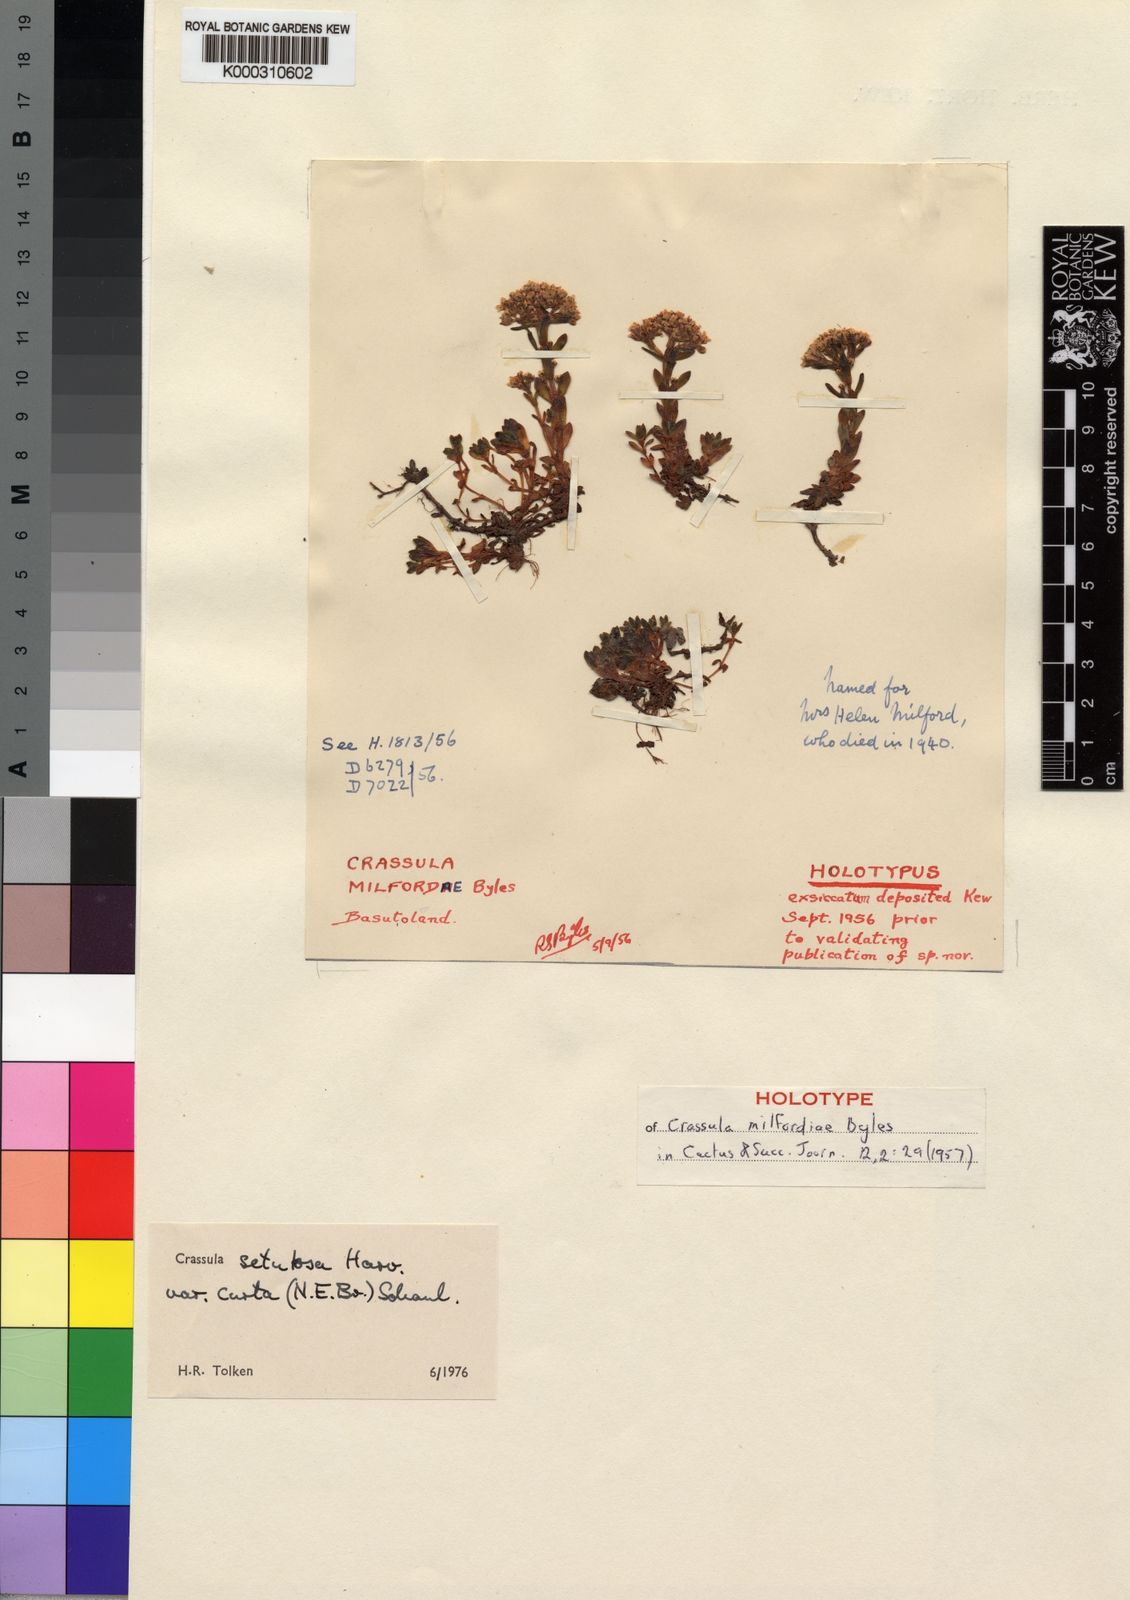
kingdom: Plantae
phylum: Tracheophyta
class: Magnoliopsida
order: Saxifragales
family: Crassulaceae
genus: Crassula
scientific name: Crassula setulosa
